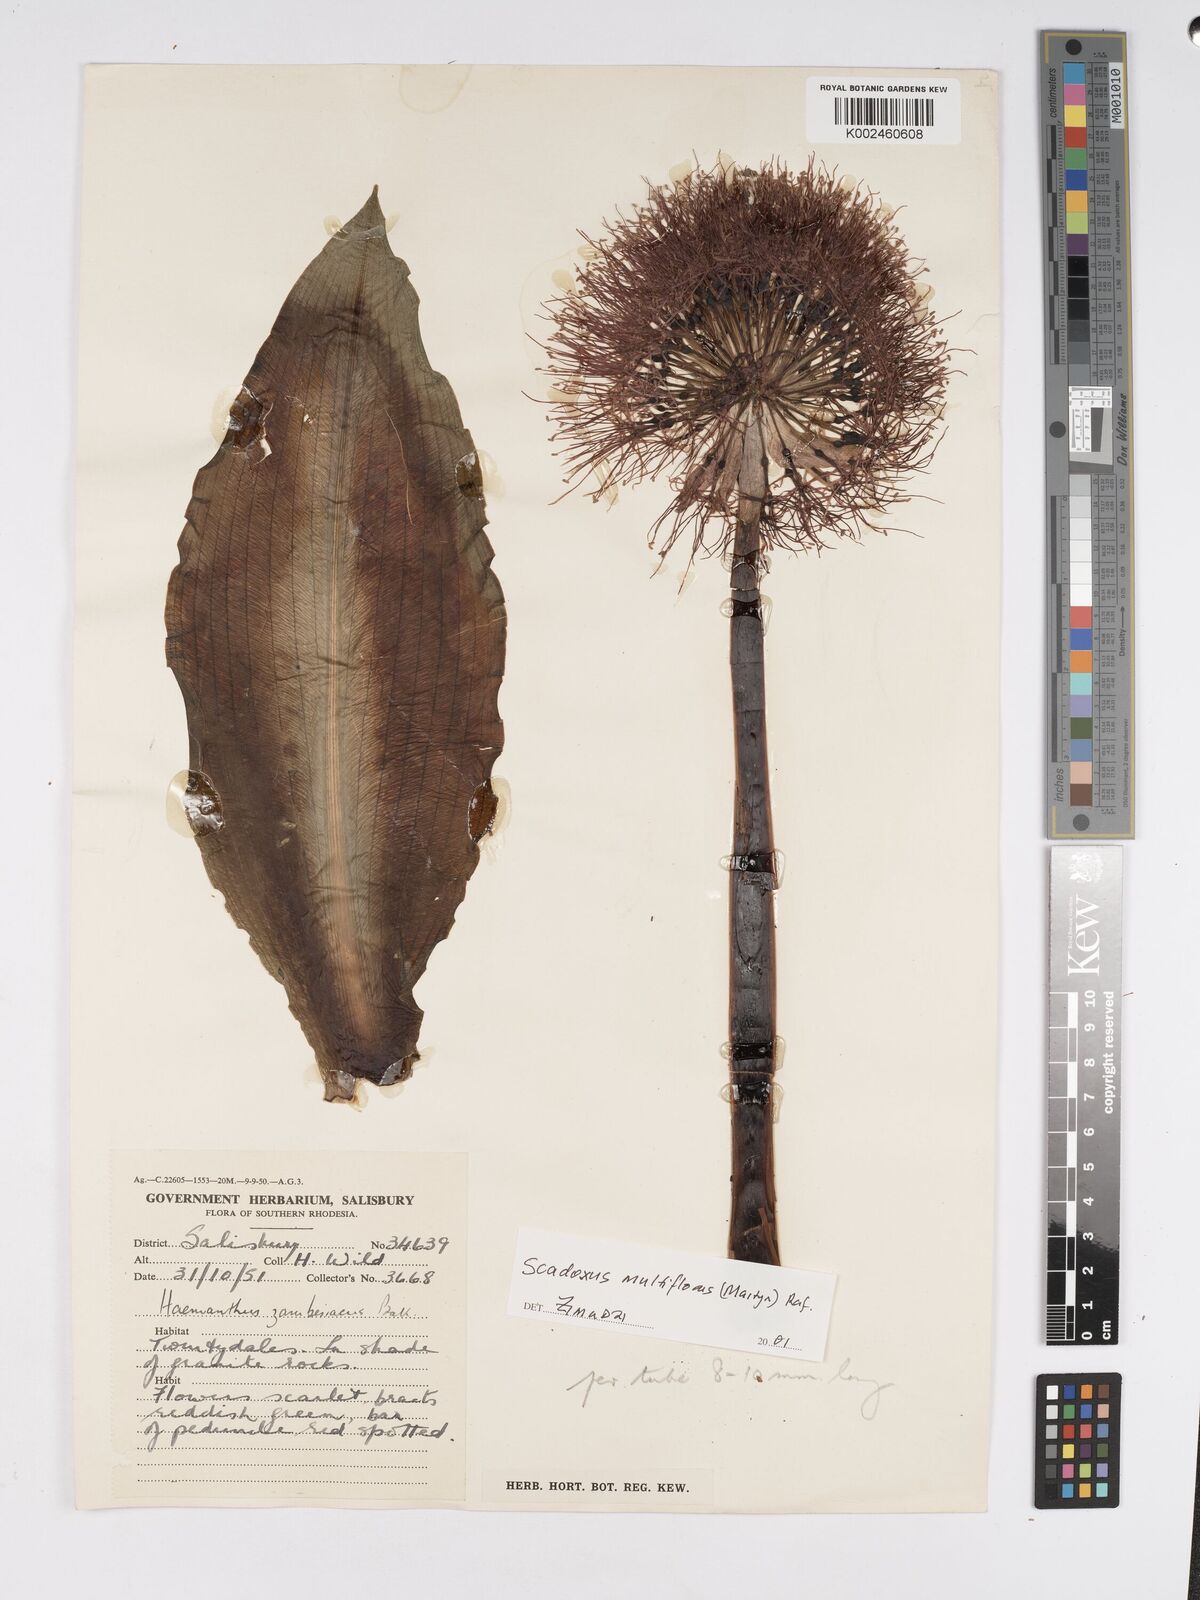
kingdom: Plantae
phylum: Tracheophyta
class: Liliopsida
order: Asparagales
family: Amaryllidaceae
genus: Scadoxus
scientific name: Scadoxus multiflorus
